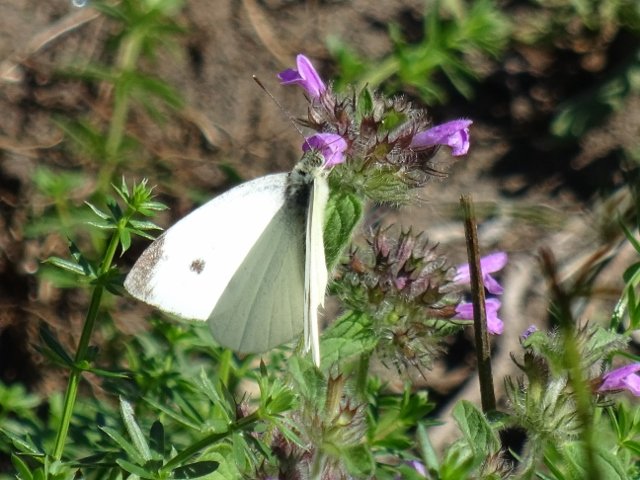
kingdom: Animalia
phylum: Arthropoda
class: Insecta
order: Lepidoptera
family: Pieridae
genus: Pieris
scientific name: Pieris rapae
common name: Cabbage White
